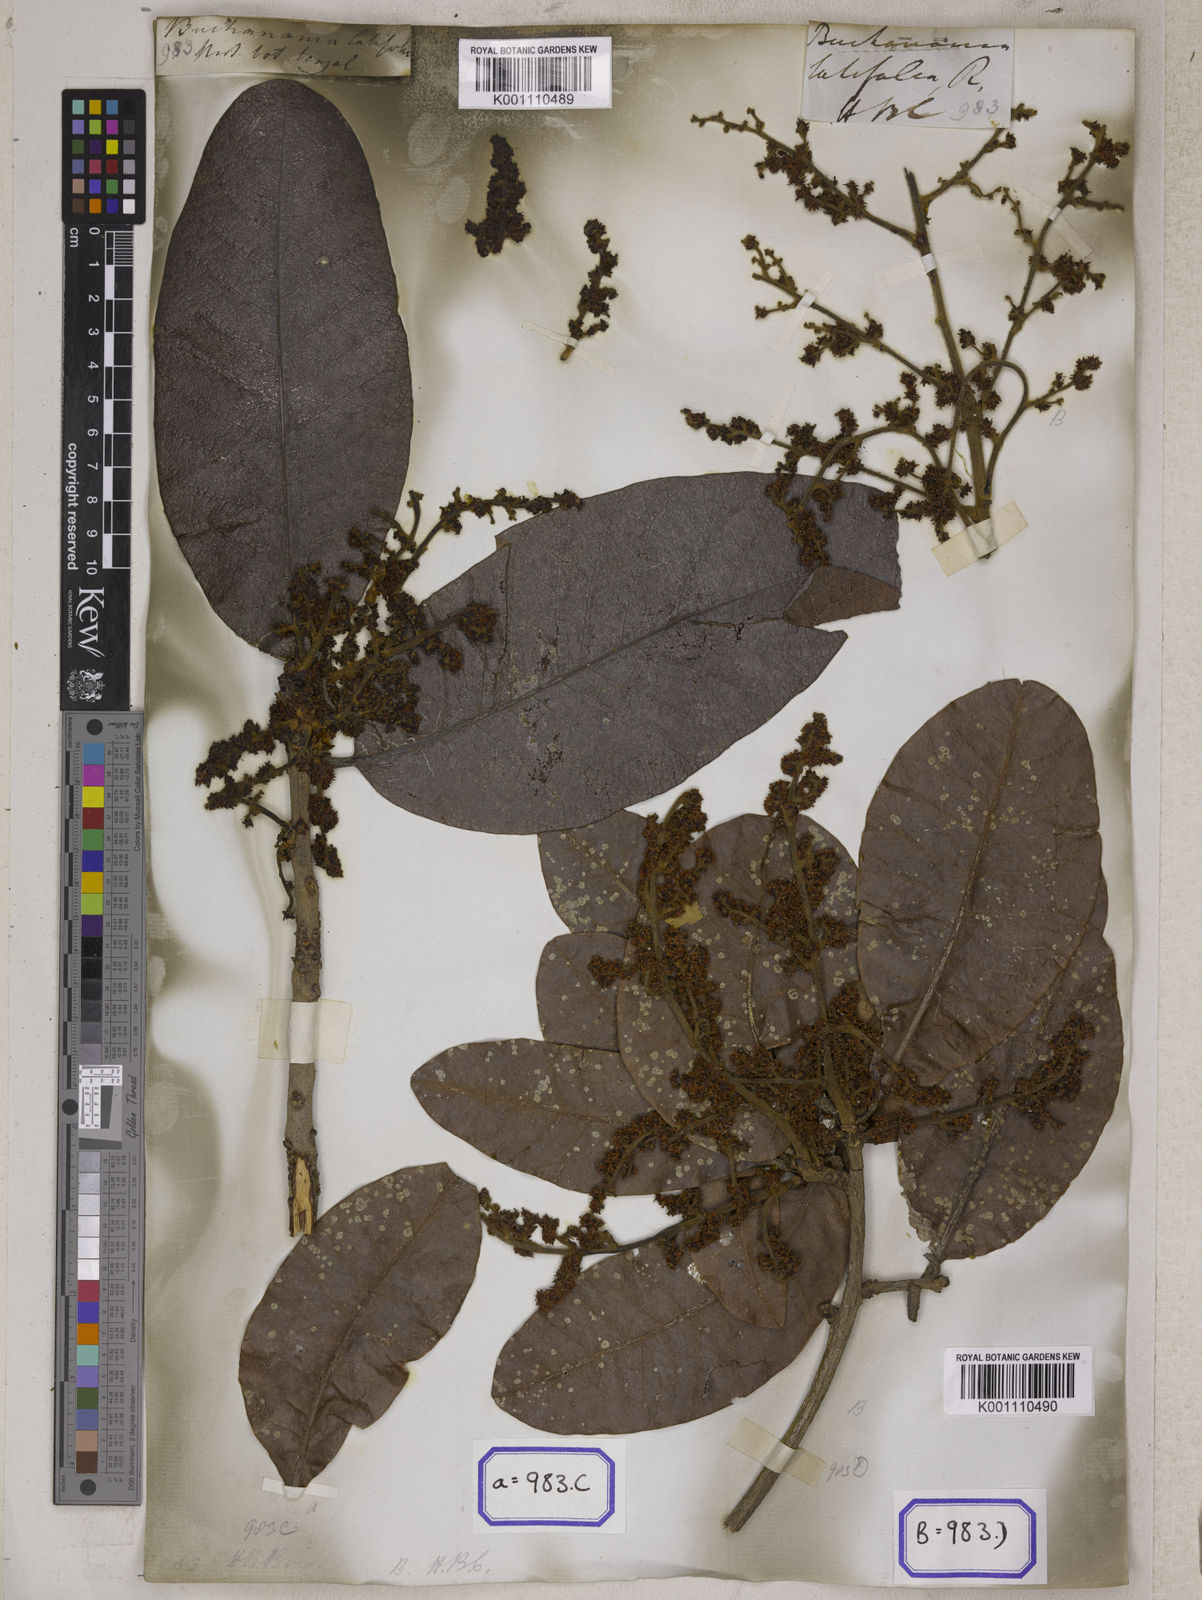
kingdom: Plantae
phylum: Tracheophyta
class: Magnoliopsida
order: Sapindales
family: Anacardiaceae
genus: Buchanania
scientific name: Buchanania cochinchinensis
